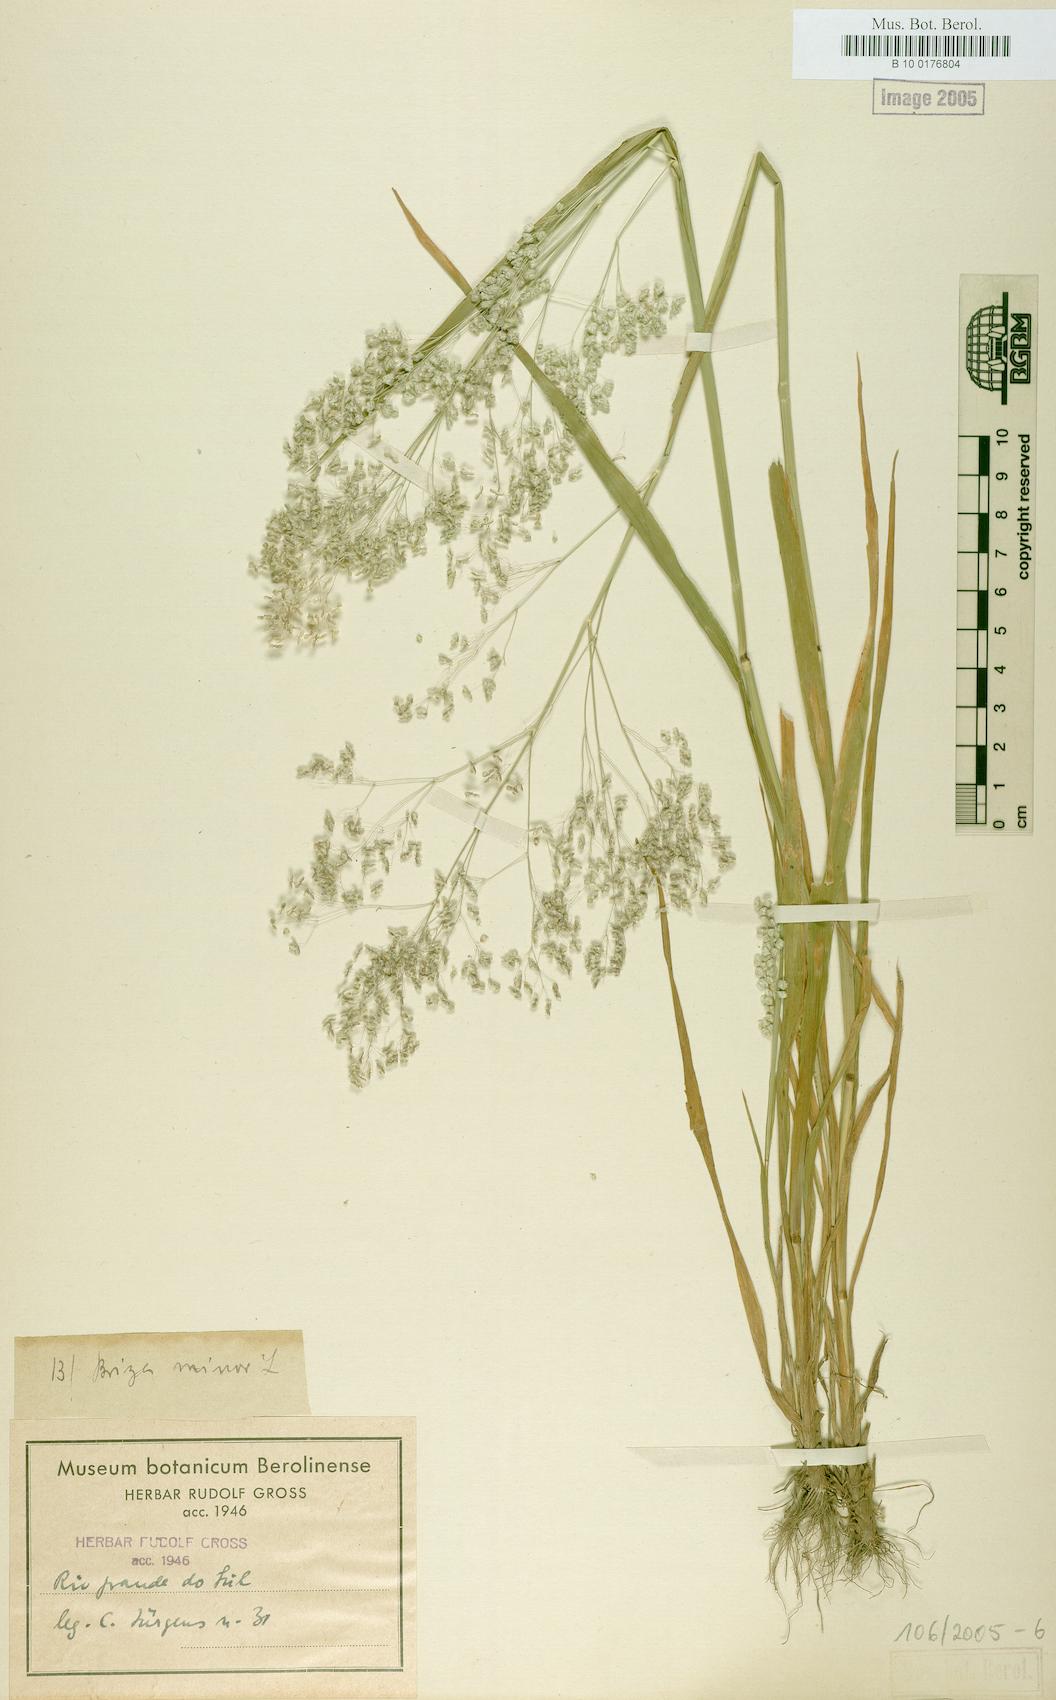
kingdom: Plantae
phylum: Tracheophyta
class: Liliopsida
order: Poales
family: Poaceae
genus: Briza
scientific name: Briza minor
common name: Lesser quaking-grass
